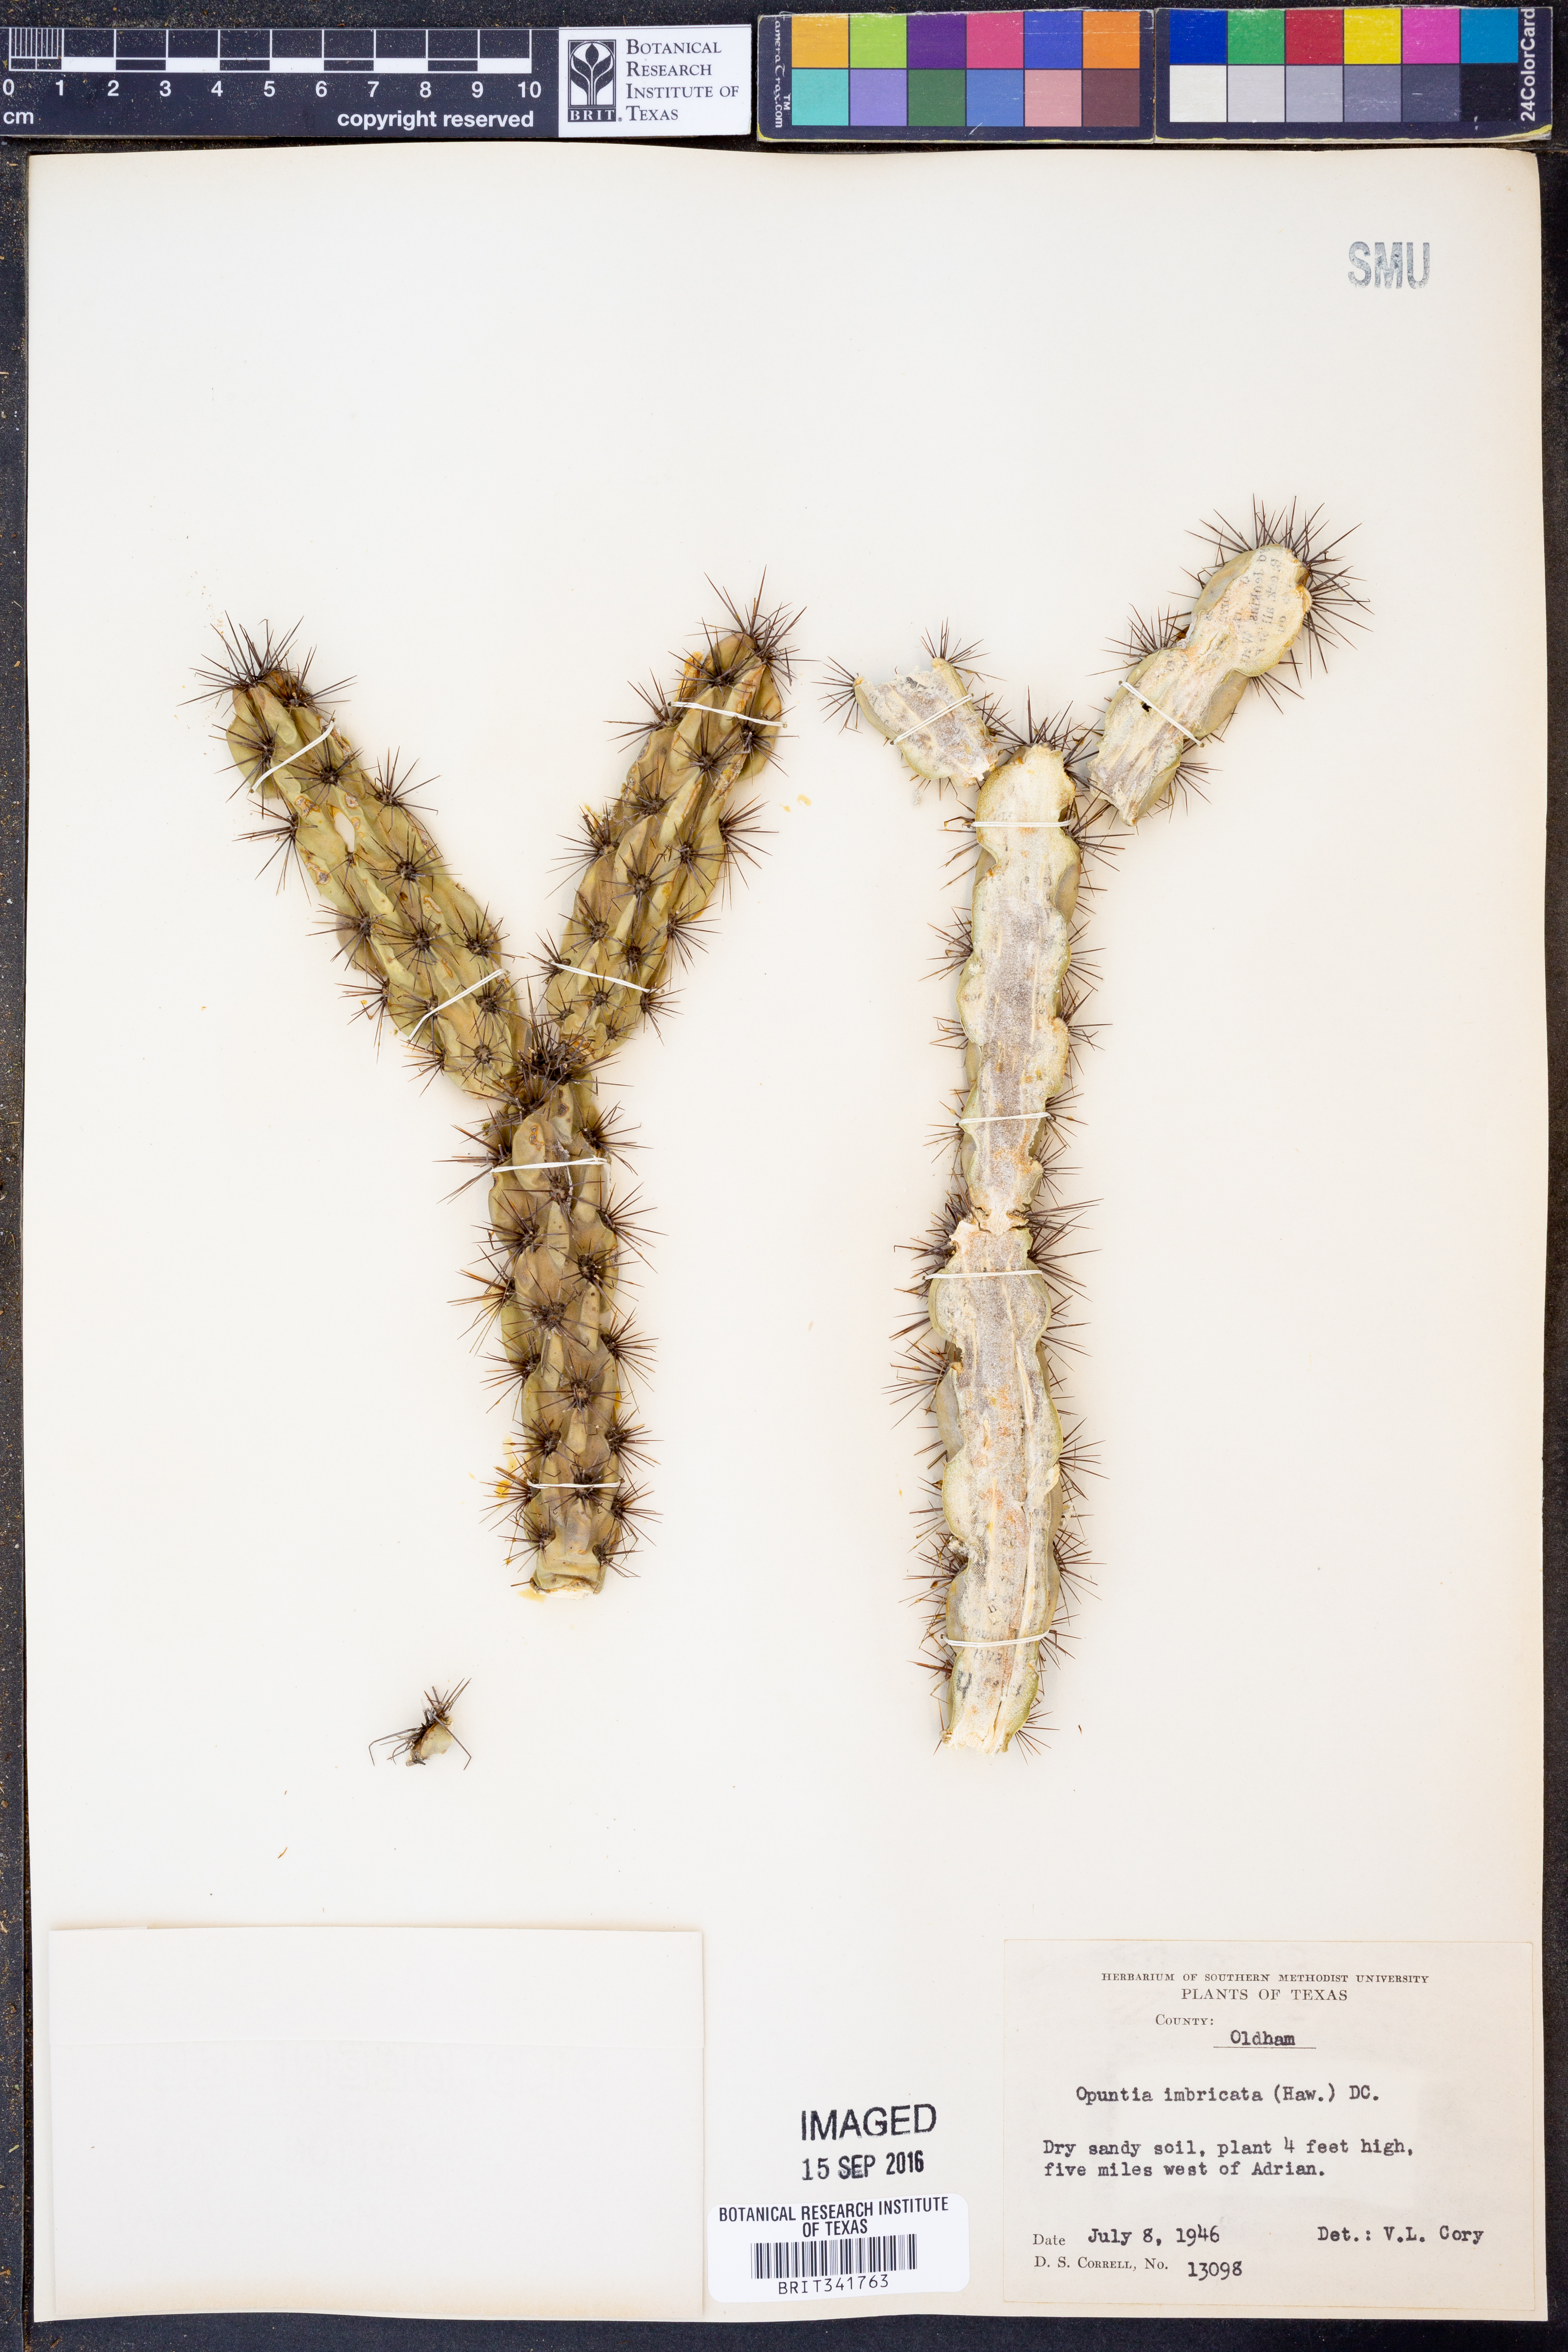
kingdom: Plantae
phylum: Tracheophyta
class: Magnoliopsida
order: Caryophyllales
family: Cactaceae
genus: Cylindropuntia
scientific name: Cylindropuntia imbricata
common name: Candelabrum cactus
